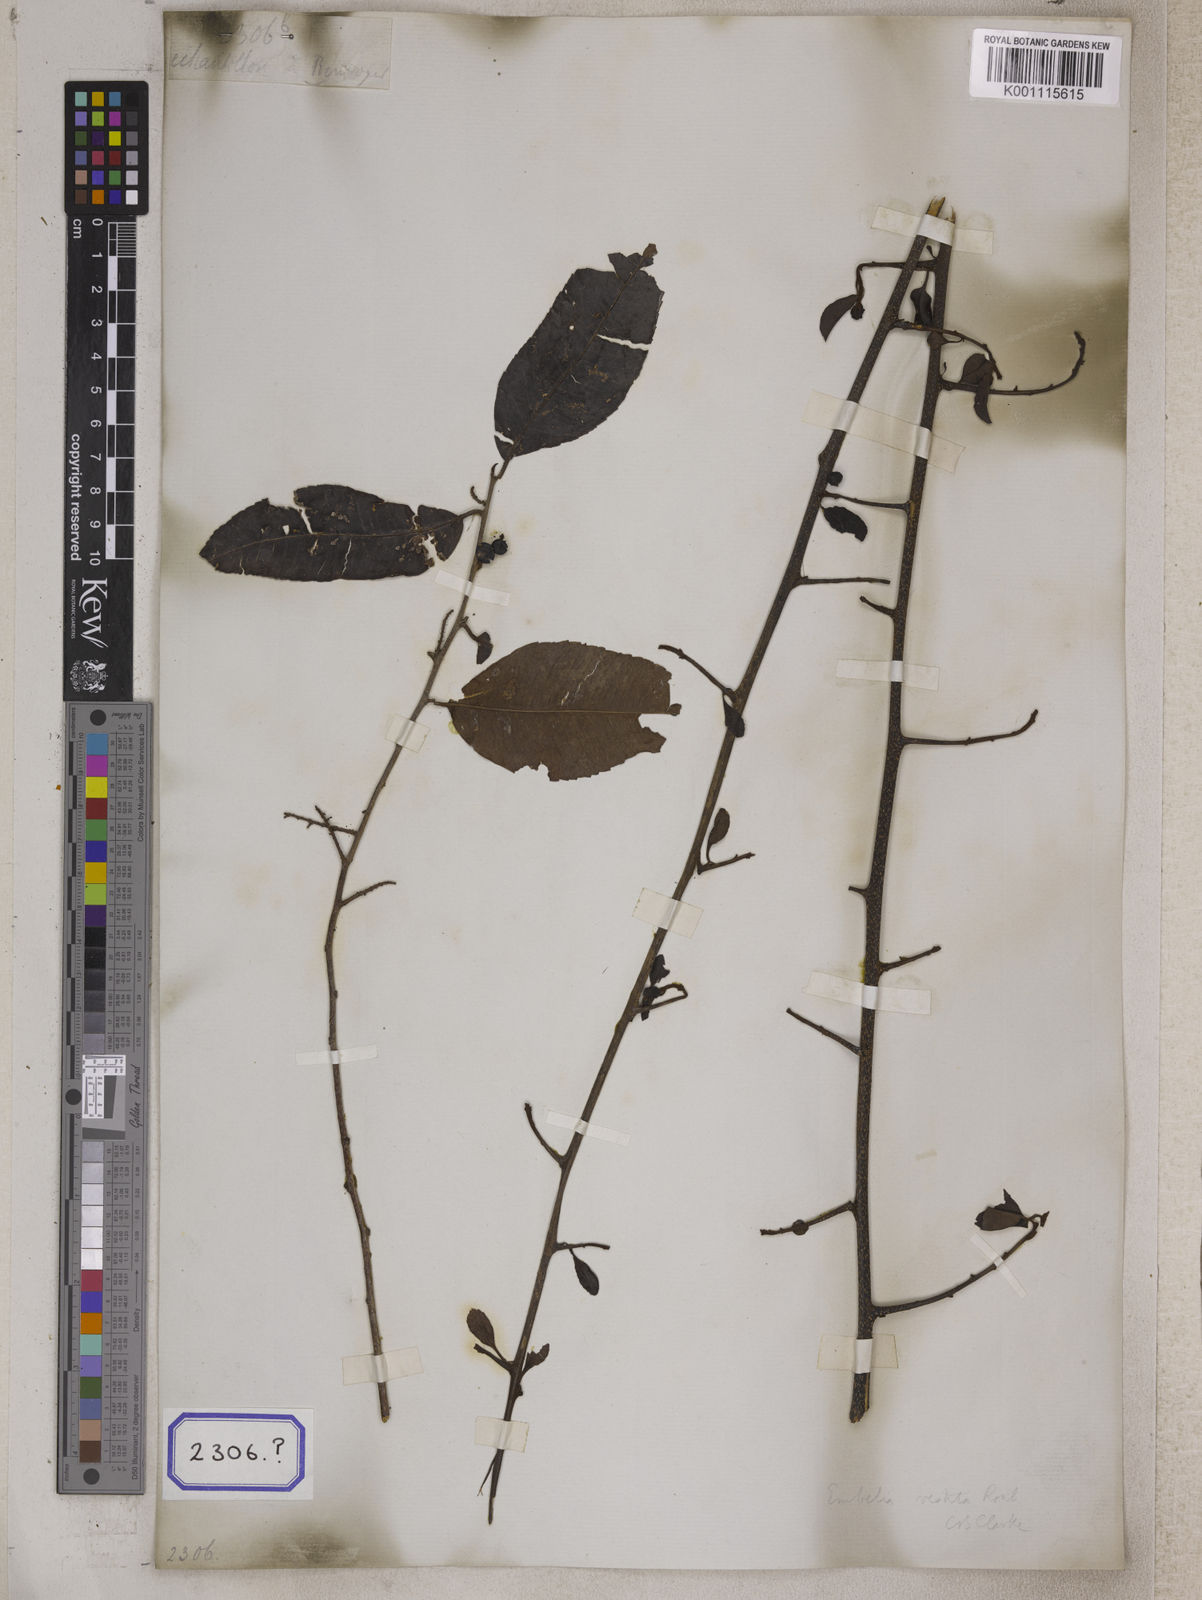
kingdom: Plantae
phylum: Tracheophyta
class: Magnoliopsida
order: Ericales
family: Primulaceae
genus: Embelia
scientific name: Embelia vestita
